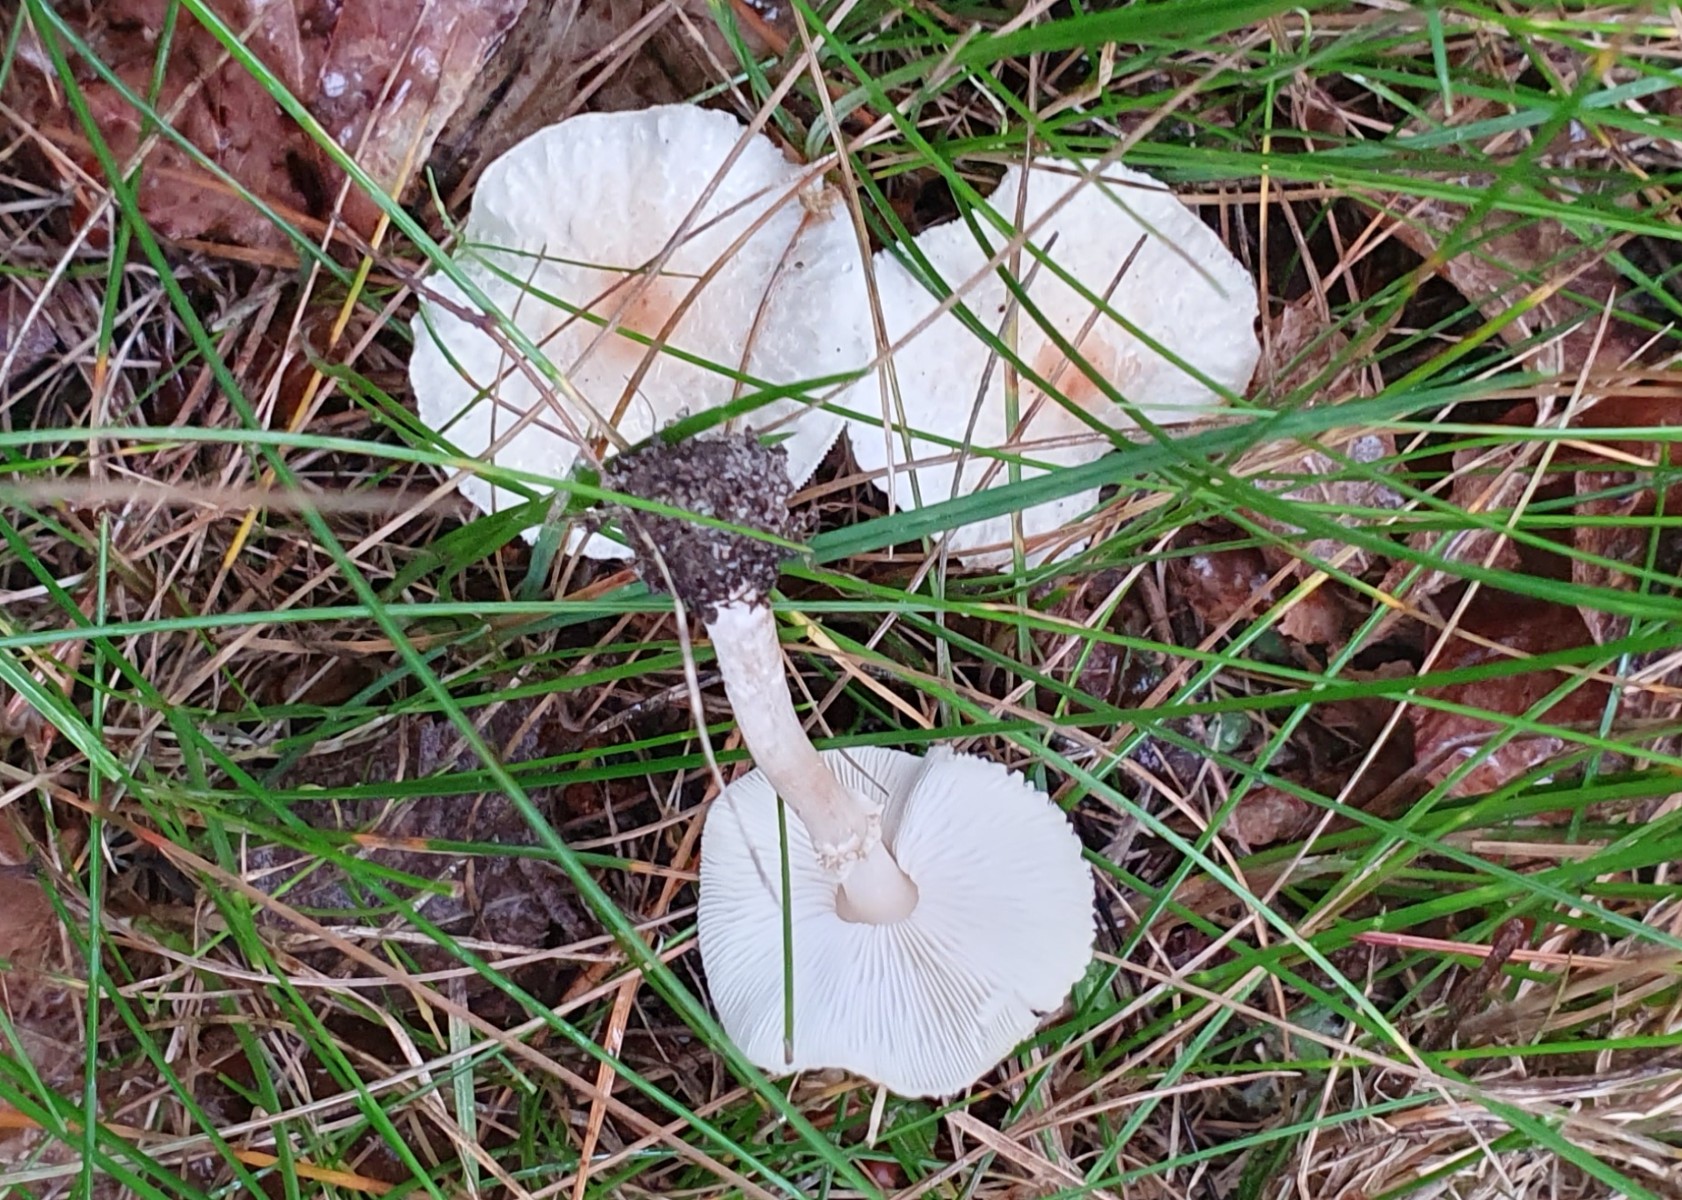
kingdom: Fungi
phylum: Basidiomycota
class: Agaricomycetes
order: Agaricales
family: Agaricaceae
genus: Lepiota
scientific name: Lepiota cristata
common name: stinkende parasolhat
